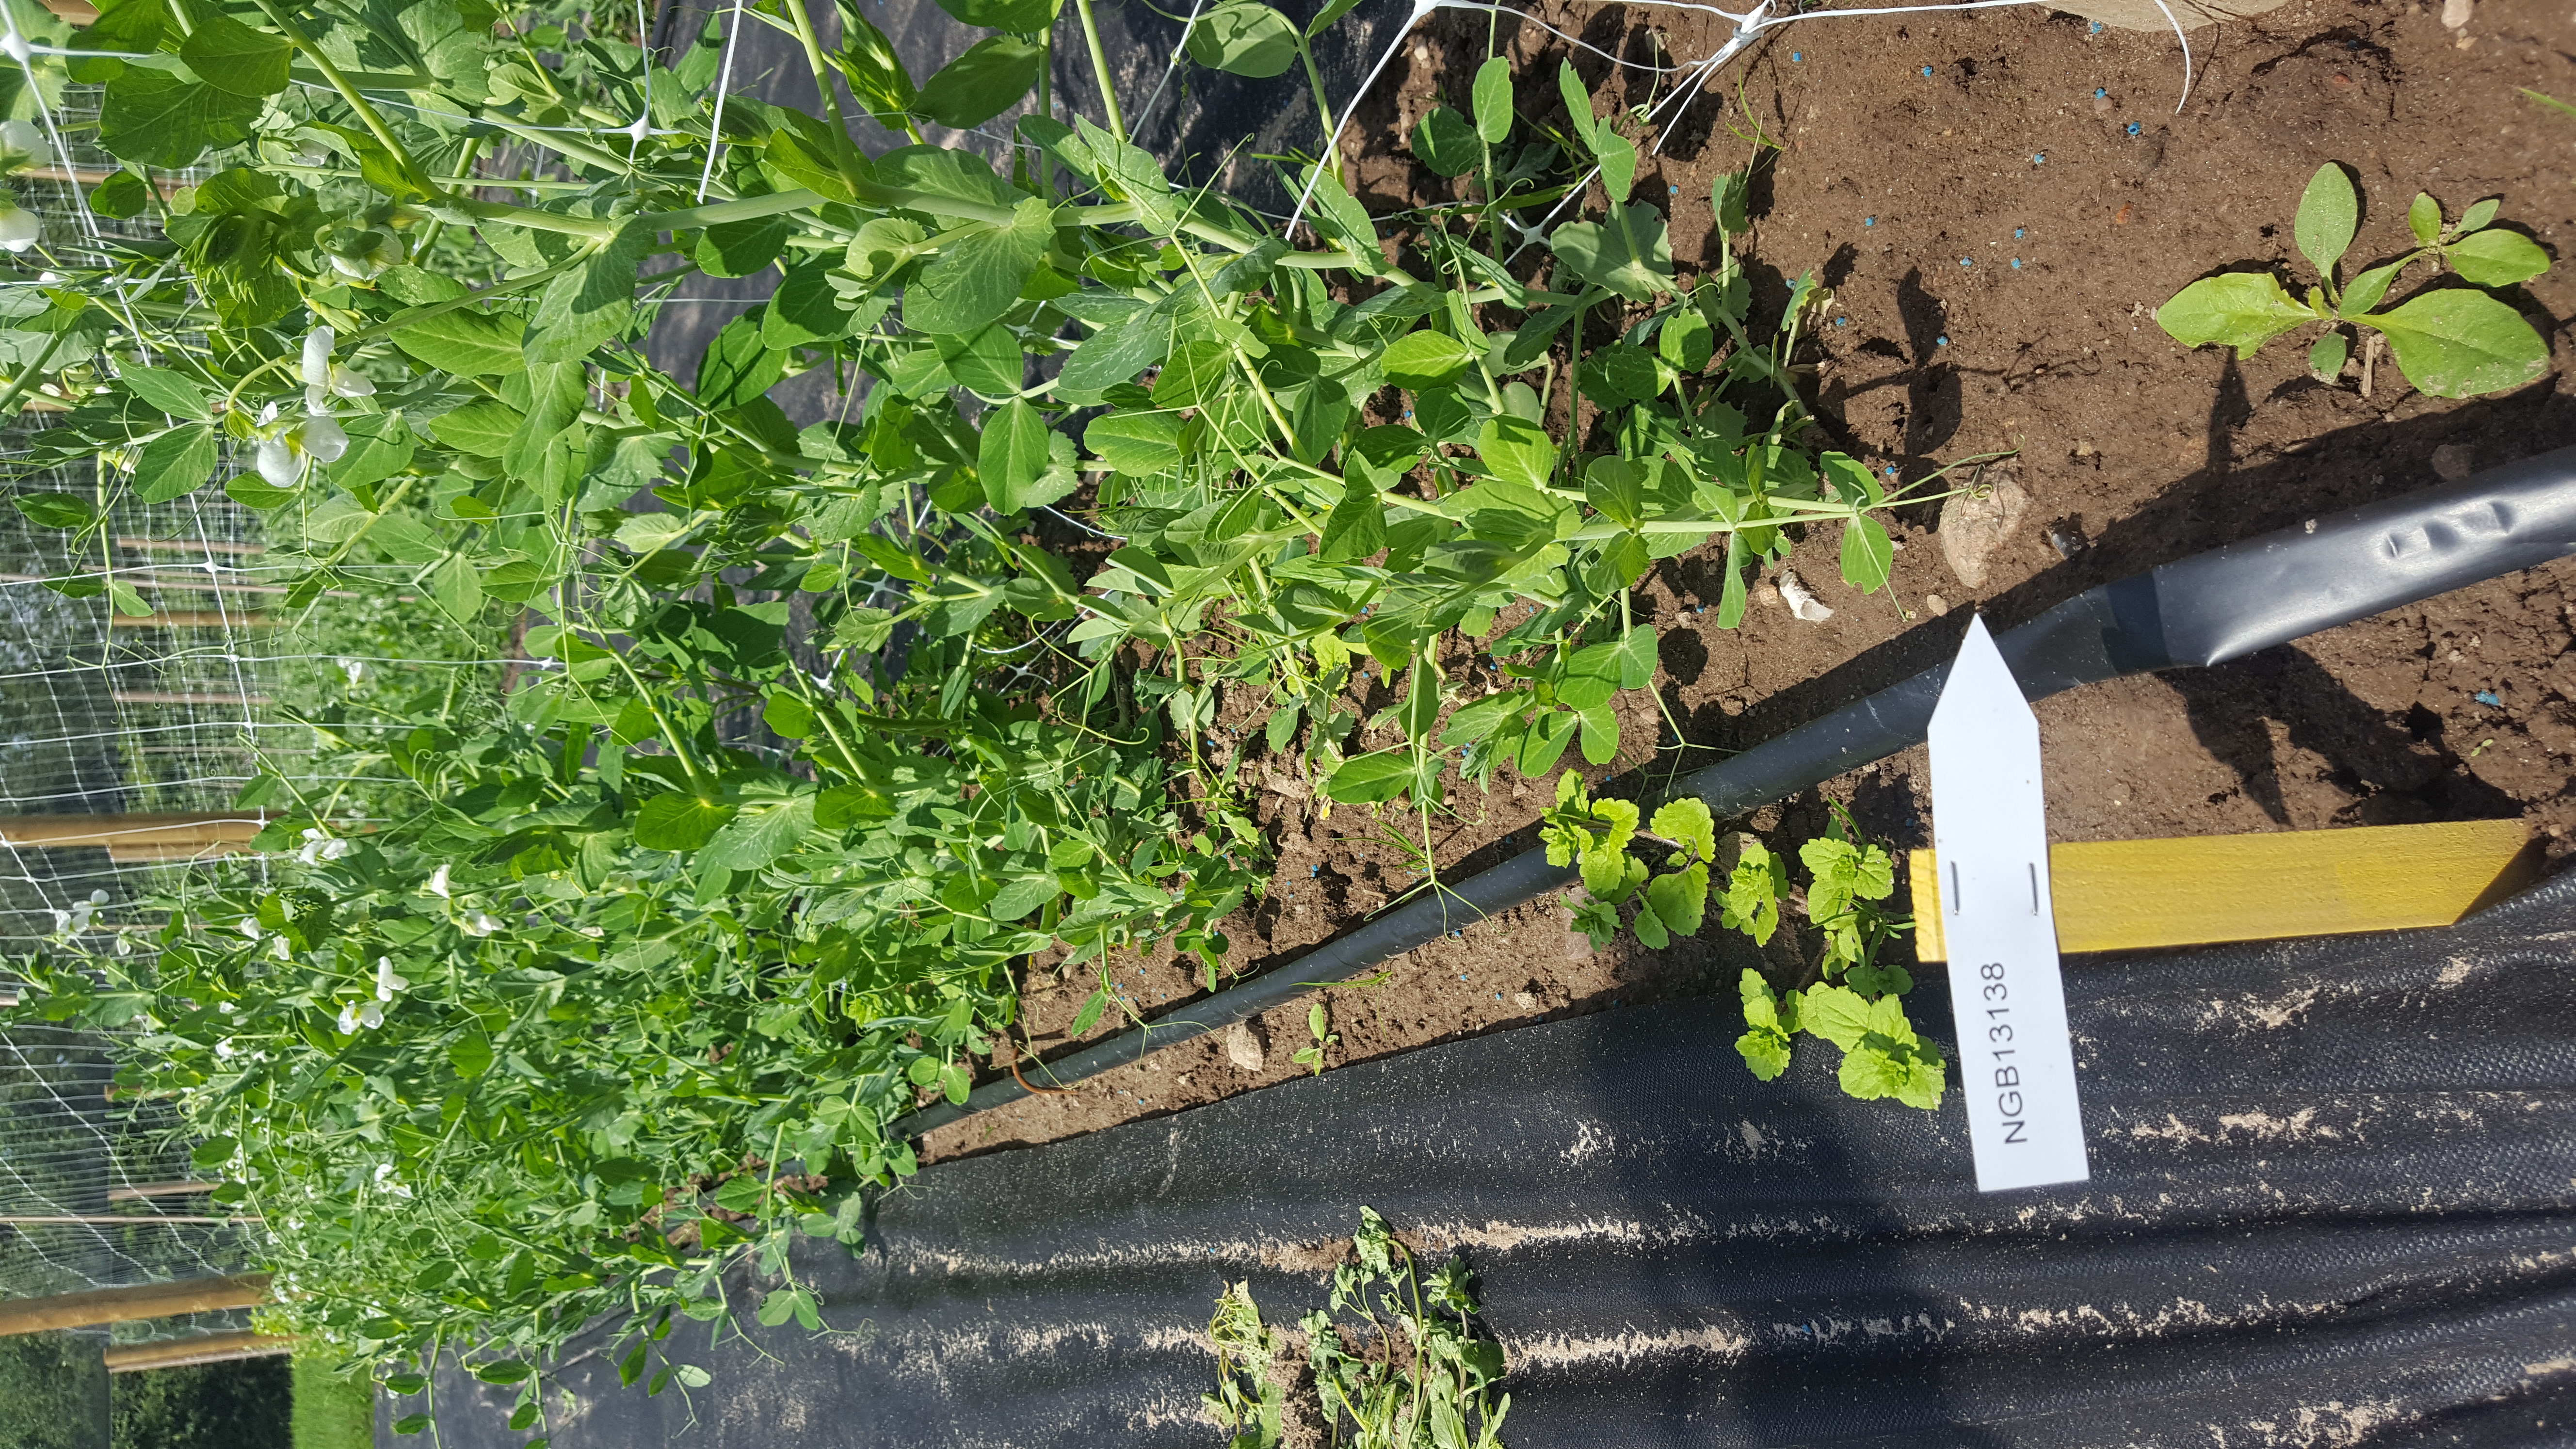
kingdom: Plantae
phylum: Tracheophyta
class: Magnoliopsida
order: Fabales
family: Fabaceae
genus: Lathyrus
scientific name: Lathyrus oleraceus
